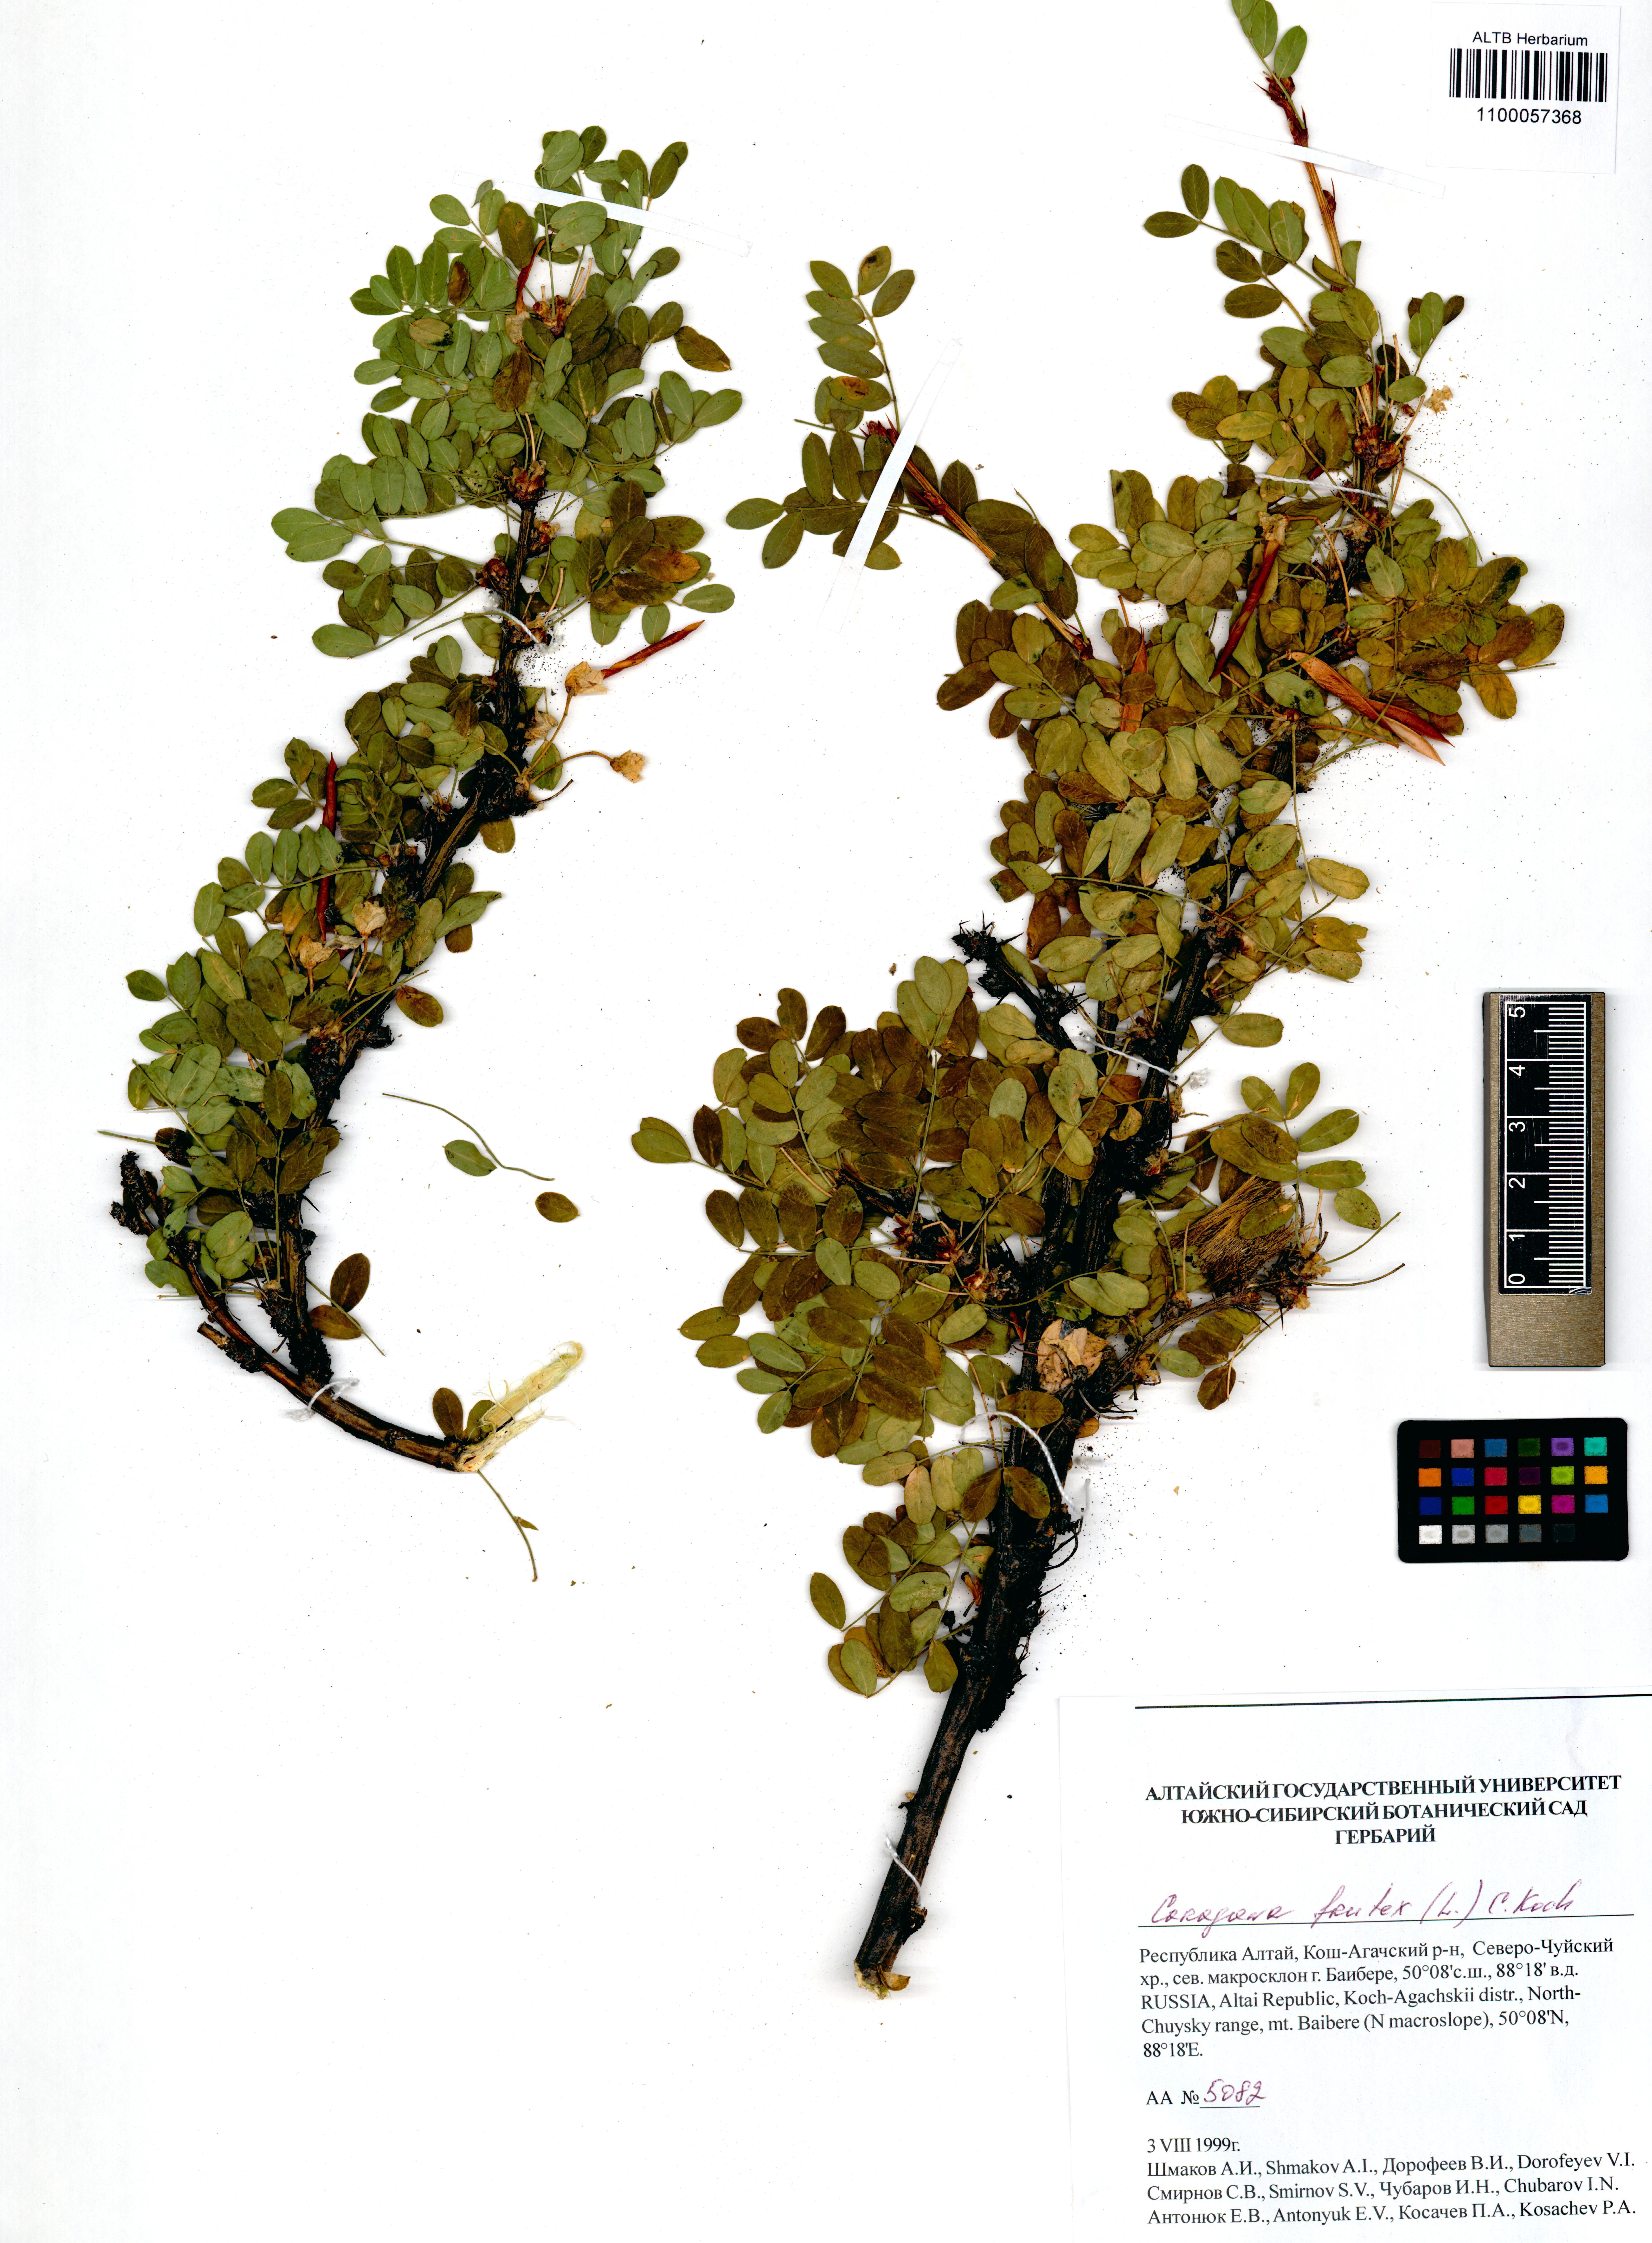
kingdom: Plantae
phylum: Tracheophyta
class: Magnoliopsida
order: Fabales
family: Fabaceae
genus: Caragana
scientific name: Caragana frutex
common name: Russian peashrub
